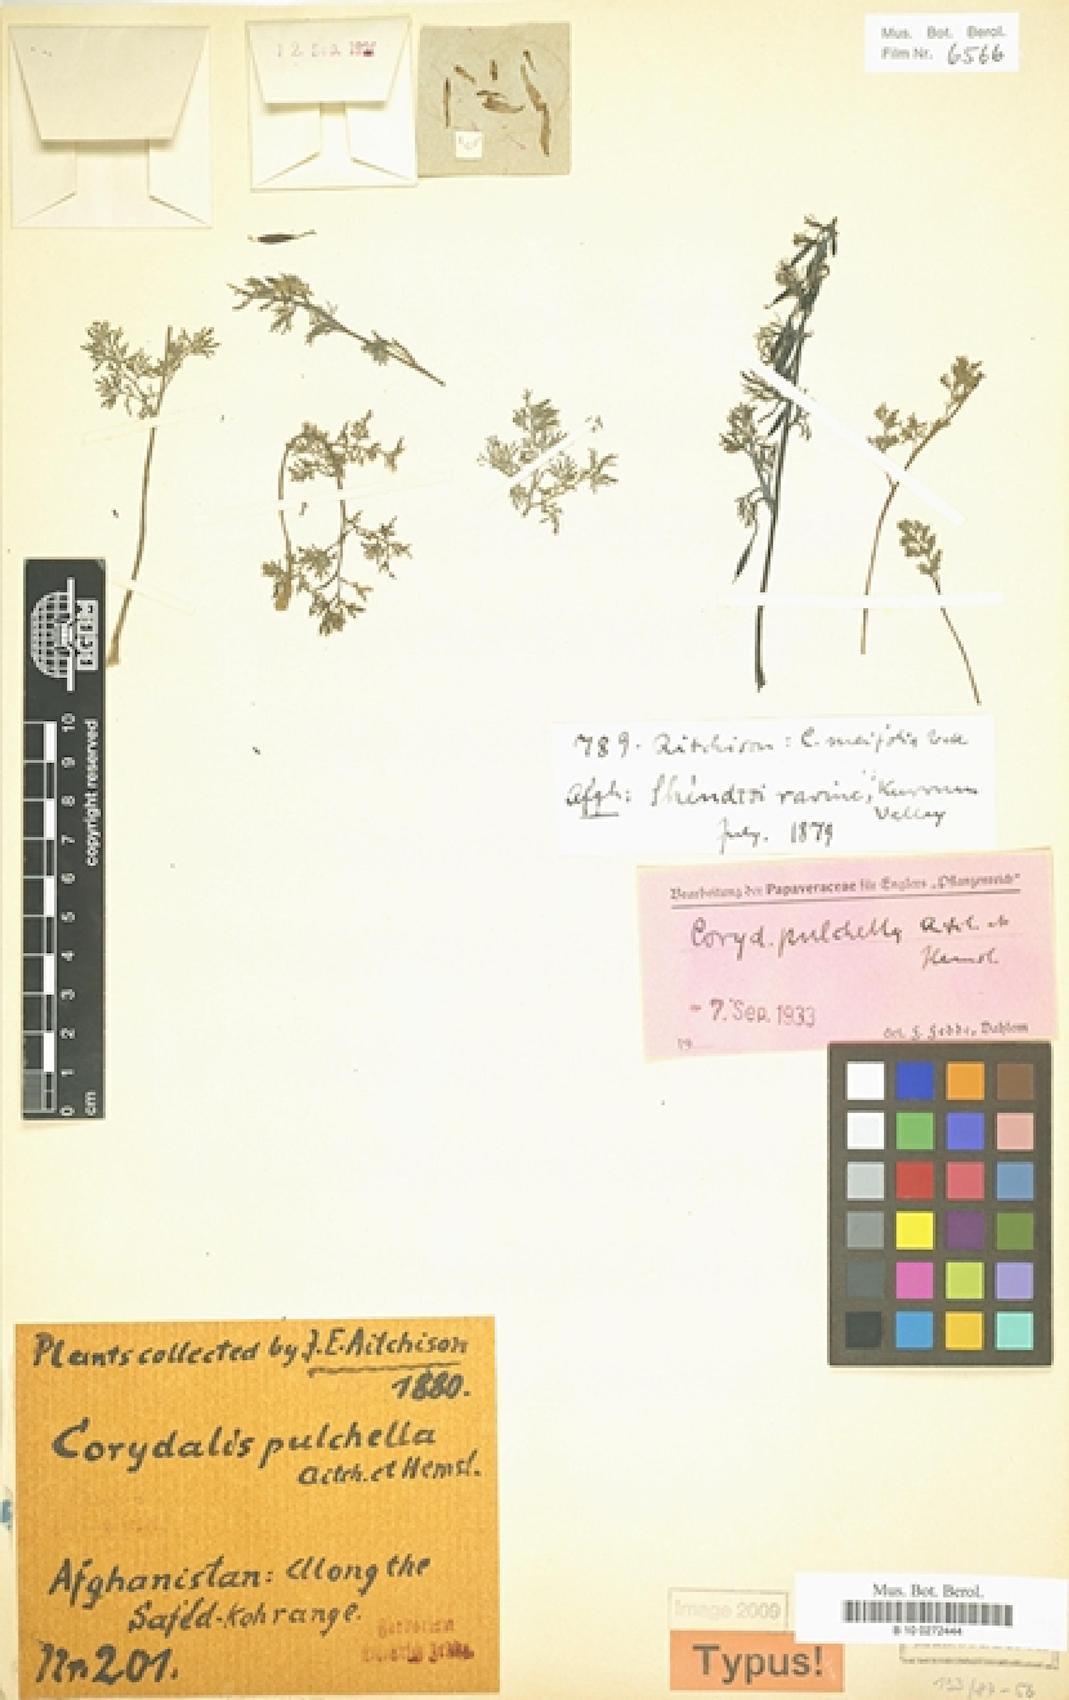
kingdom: Plantae
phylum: Tracheophyta
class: Magnoliopsida
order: Ranunculales
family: Papaveraceae
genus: Corydalis
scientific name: Corydalis pulchella
